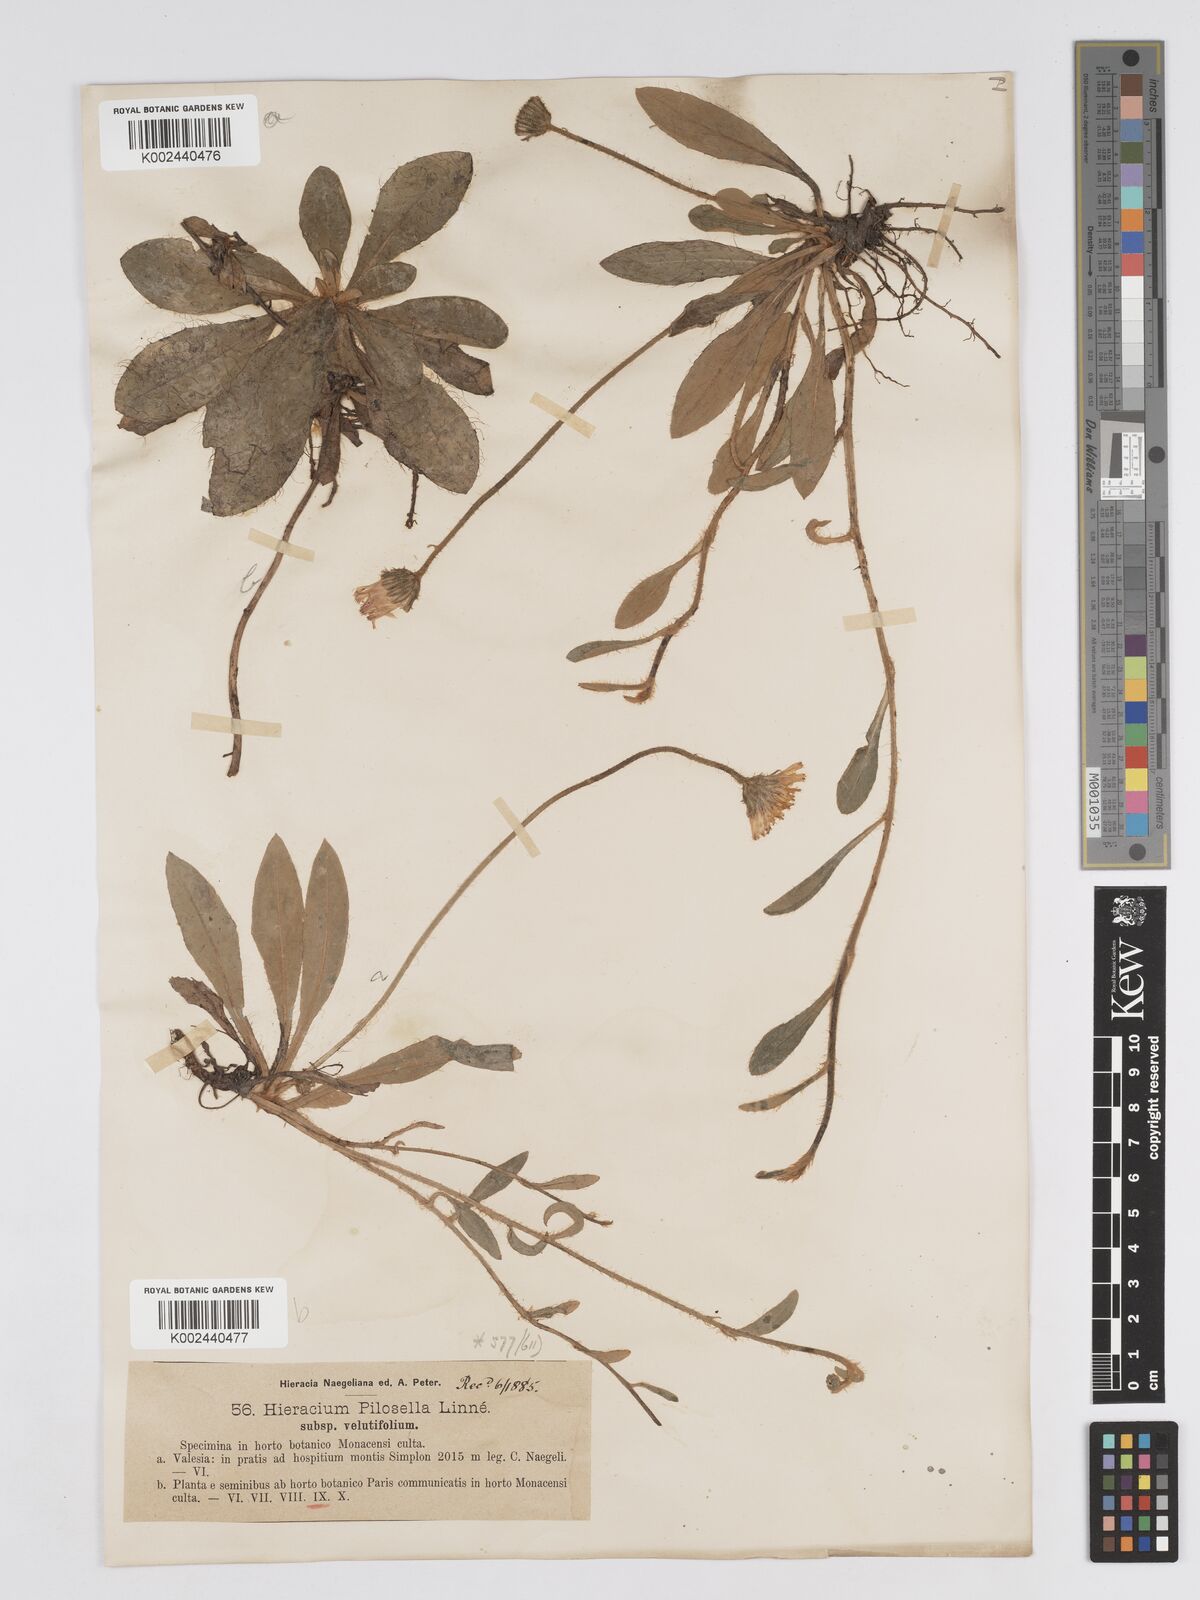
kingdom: Plantae
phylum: Tracheophyta
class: Magnoliopsida
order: Asterales
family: Asteraceae
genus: Pilosella
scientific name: Pilosella velutina
